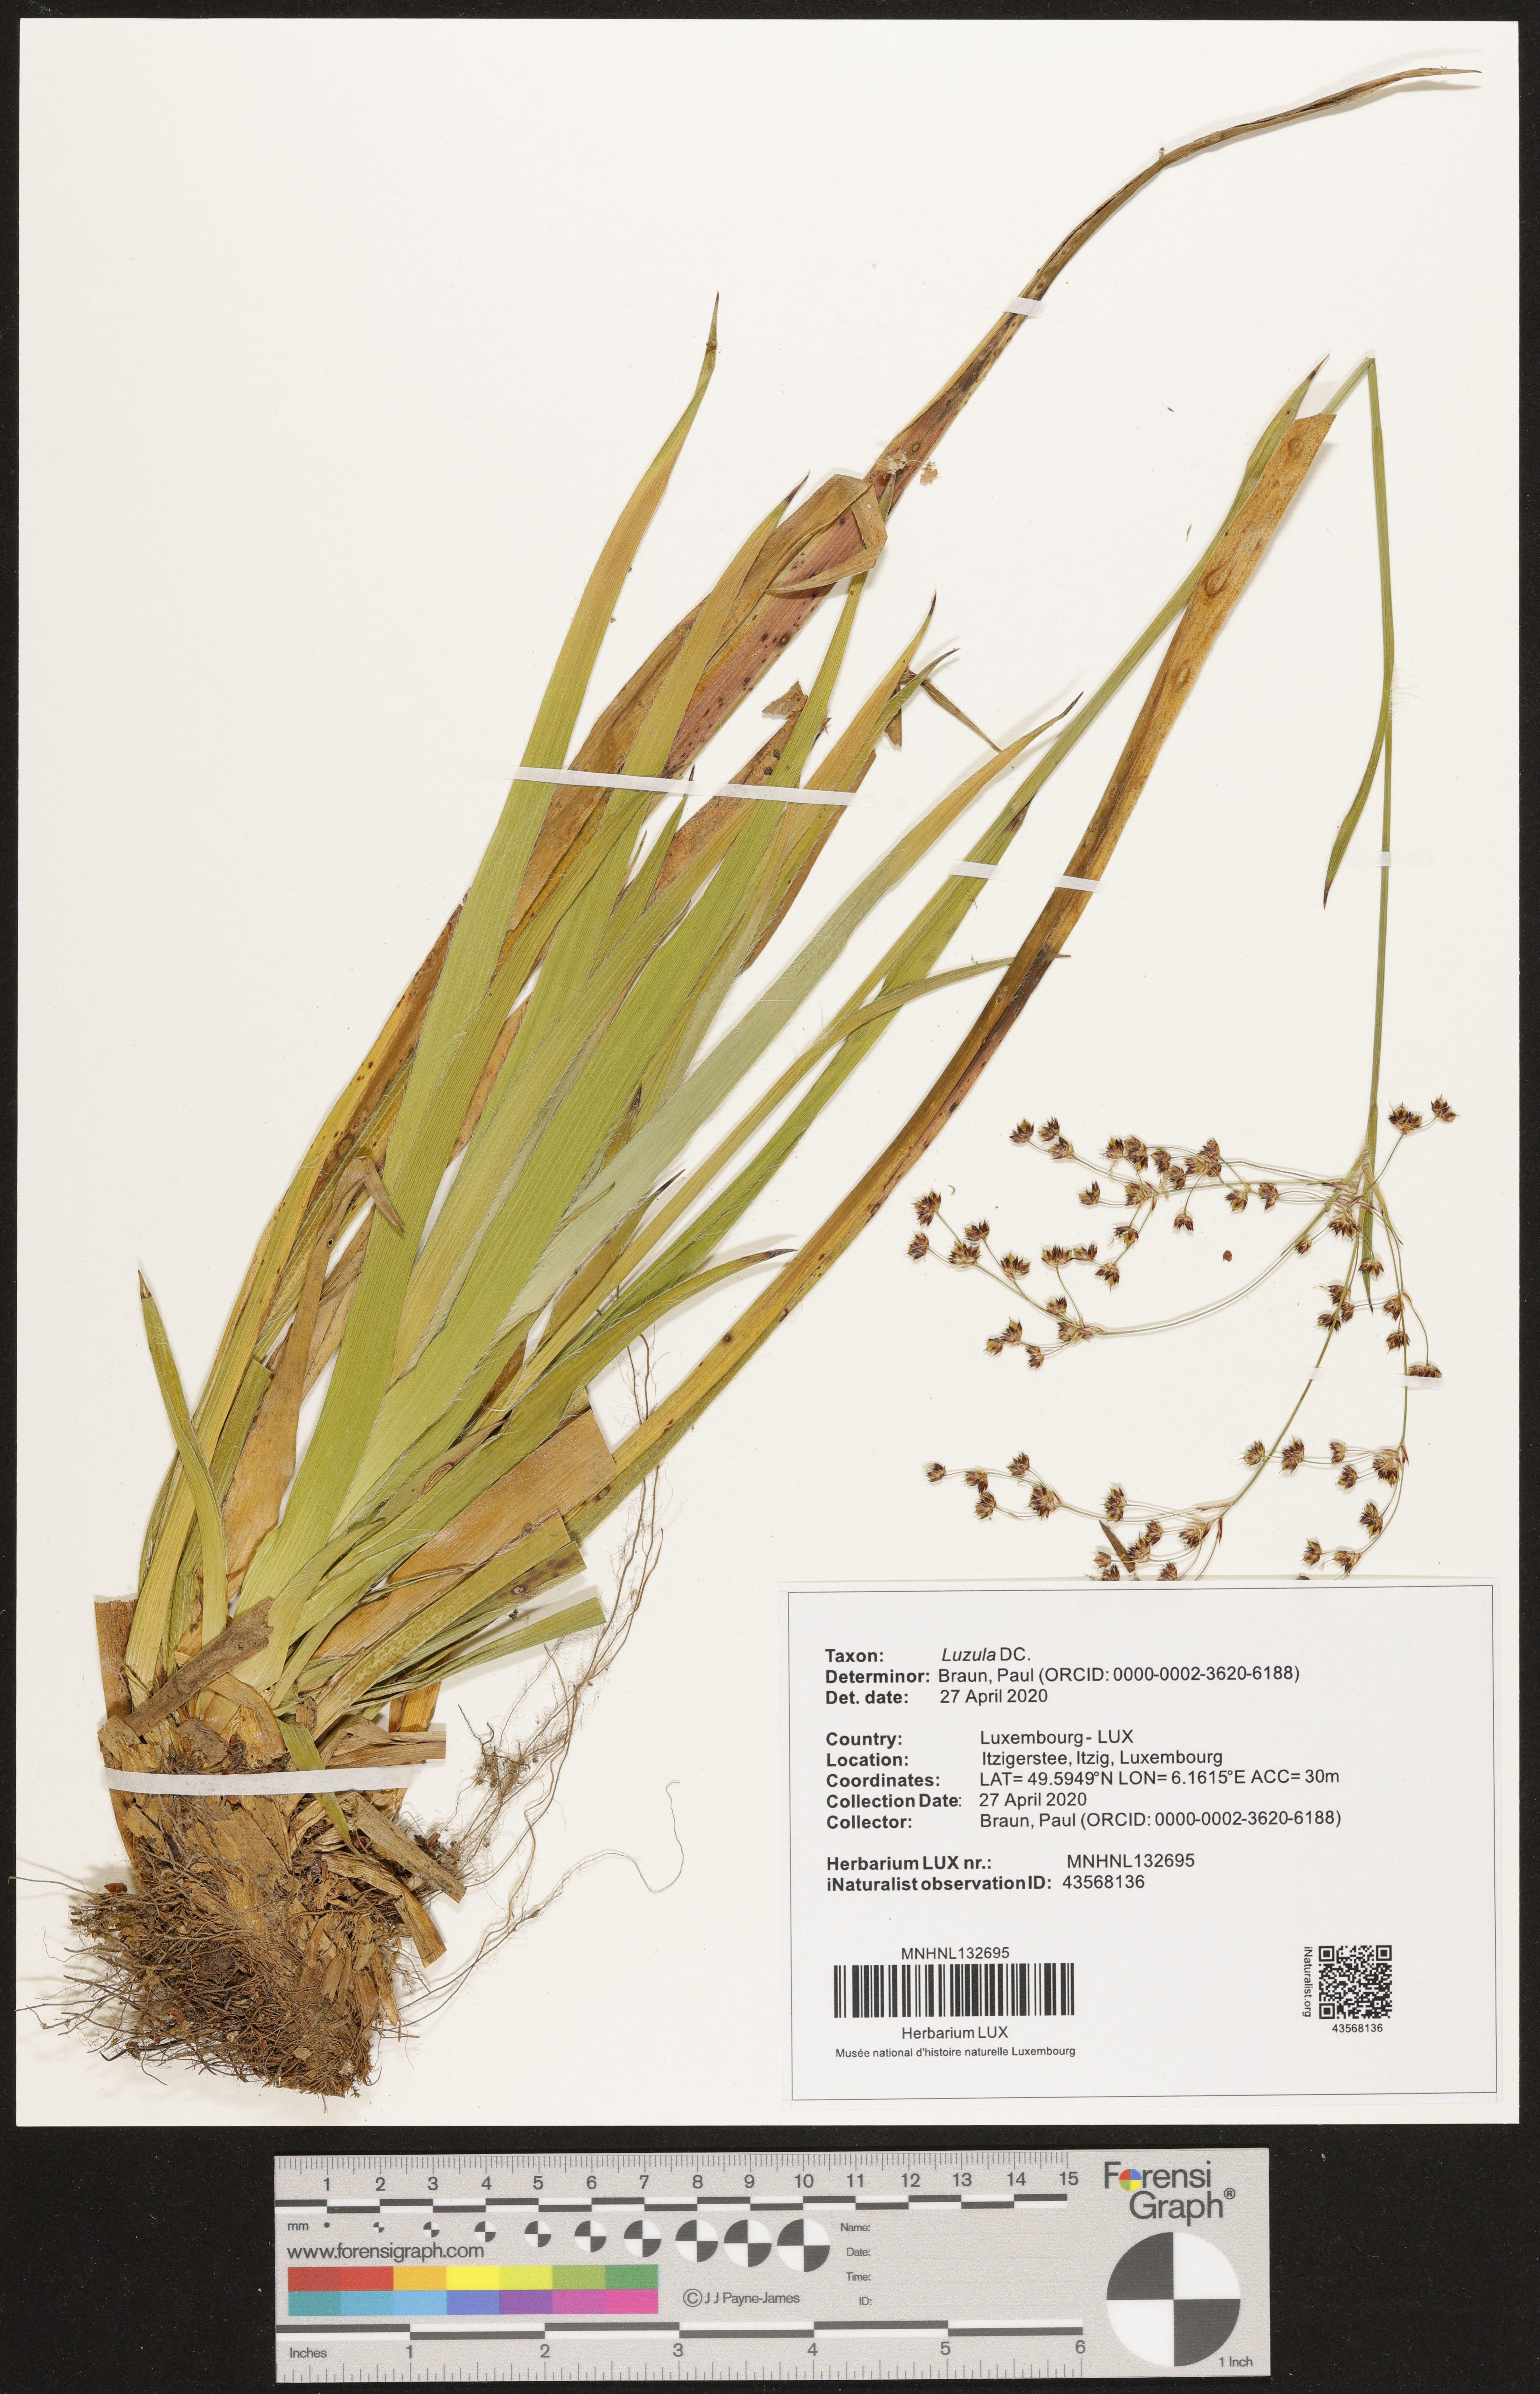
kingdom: Plantae
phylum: Tracheophyta
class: Liliopsida
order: Poales
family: Juncaceae
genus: Luzula
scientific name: Luzula
